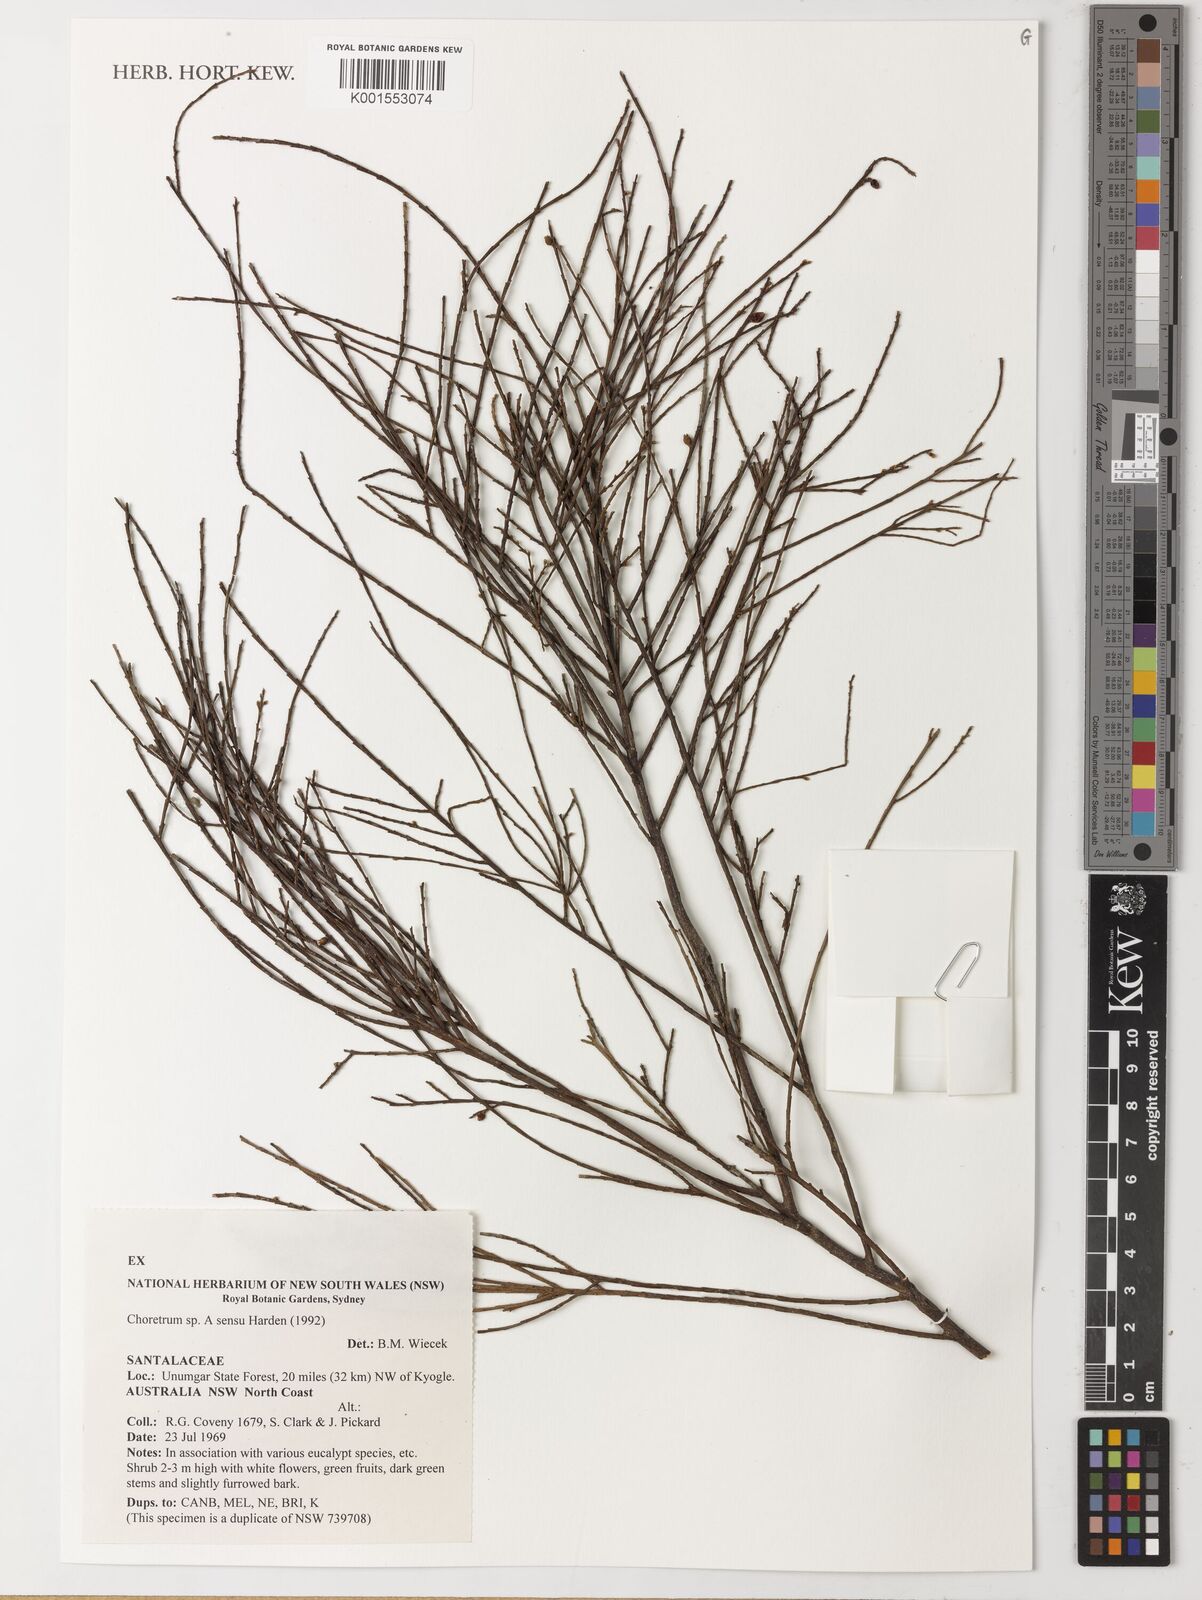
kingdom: Plantae
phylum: Tracheophyta
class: Magnoliopsida
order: Santalales
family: Amphorogynaceae
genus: Choretrum
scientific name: Choretrum
